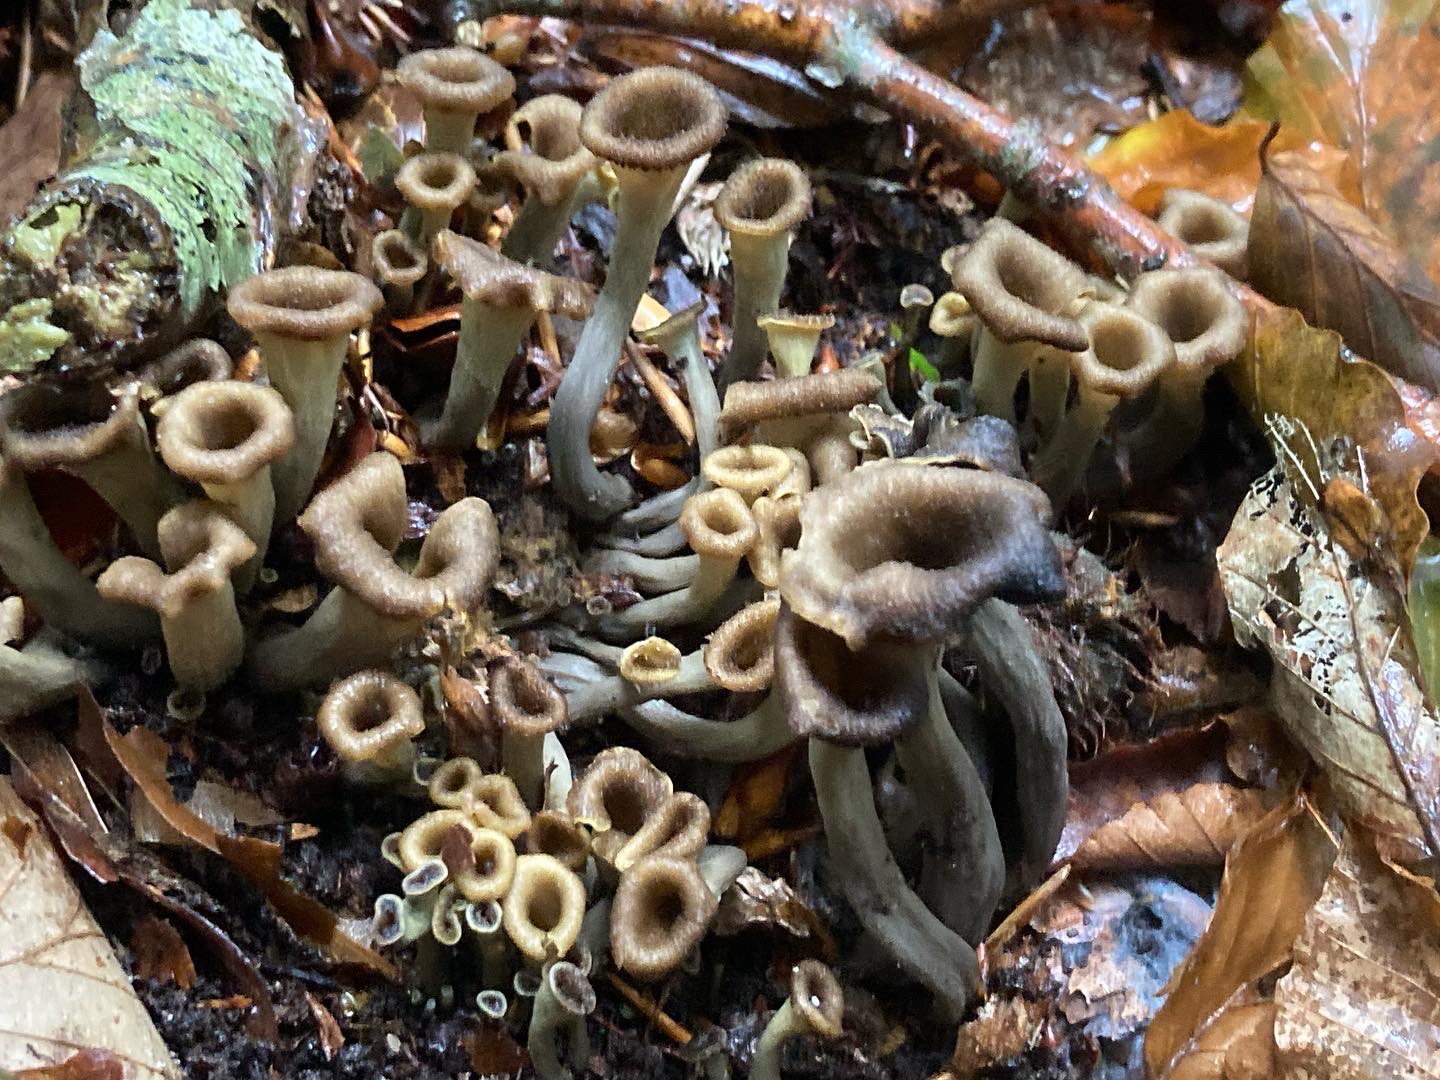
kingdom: Fungi
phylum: Basidiomycota
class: Agaricomycetes
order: Cantharellales
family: Hydnaceae
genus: Craterellus
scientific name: Craterellus cornucopioides
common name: trompetsvamp
